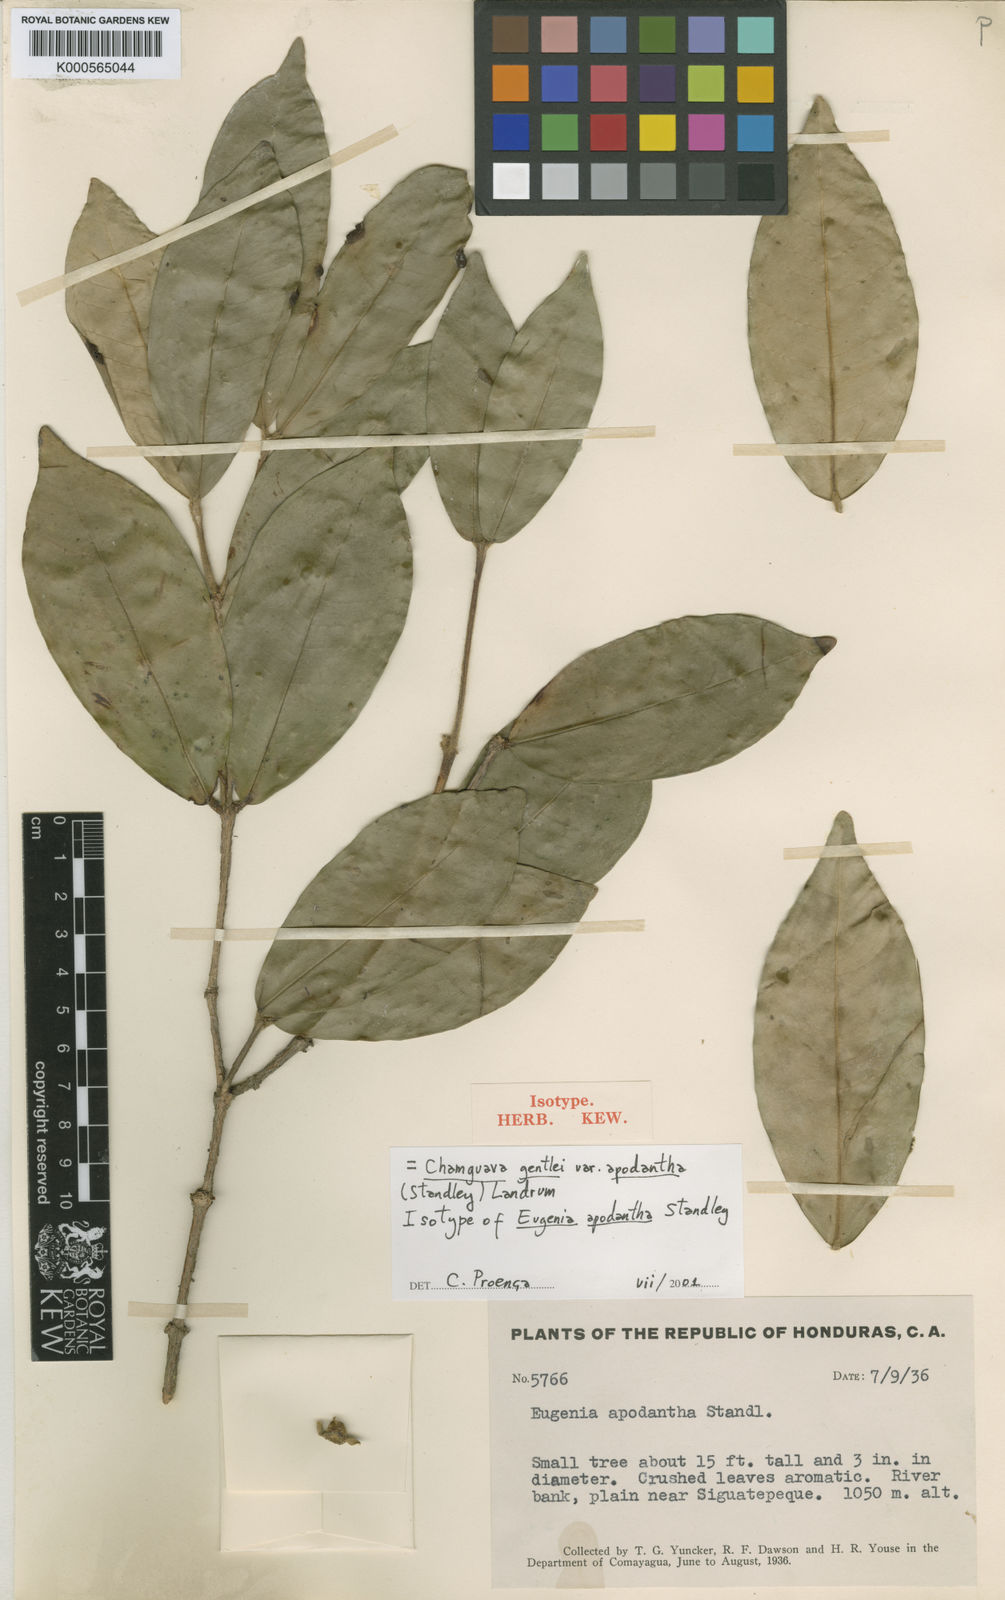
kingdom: Plantae
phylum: Tracheophyta
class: Magnoliopsida
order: Myrtales
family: Myrtaceae
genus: Chamguava
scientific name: Chamguava gentlei
